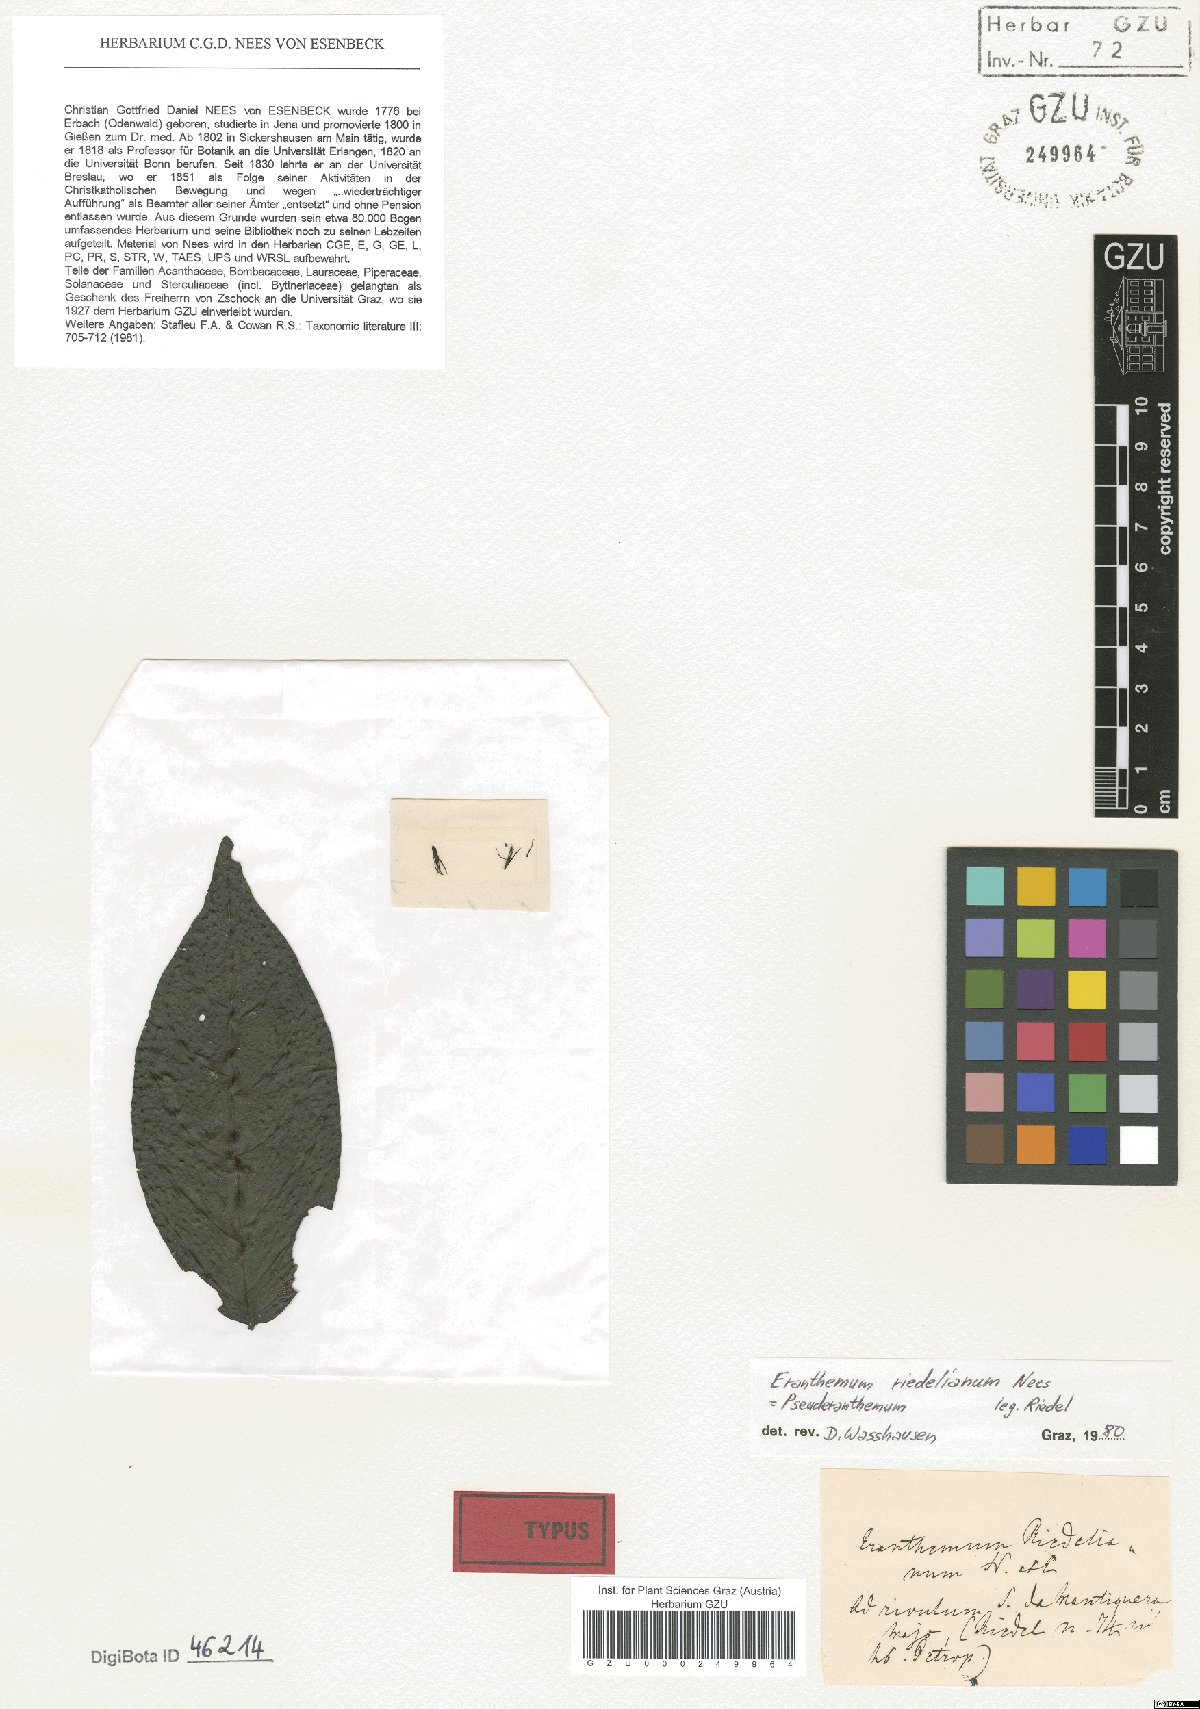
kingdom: Plantae
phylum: Tracheophyta
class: Magnoliopsida
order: Lamiales
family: Acanthaceae
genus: Pseuderanthemum
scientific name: Pseuderanthemum riedelianum
